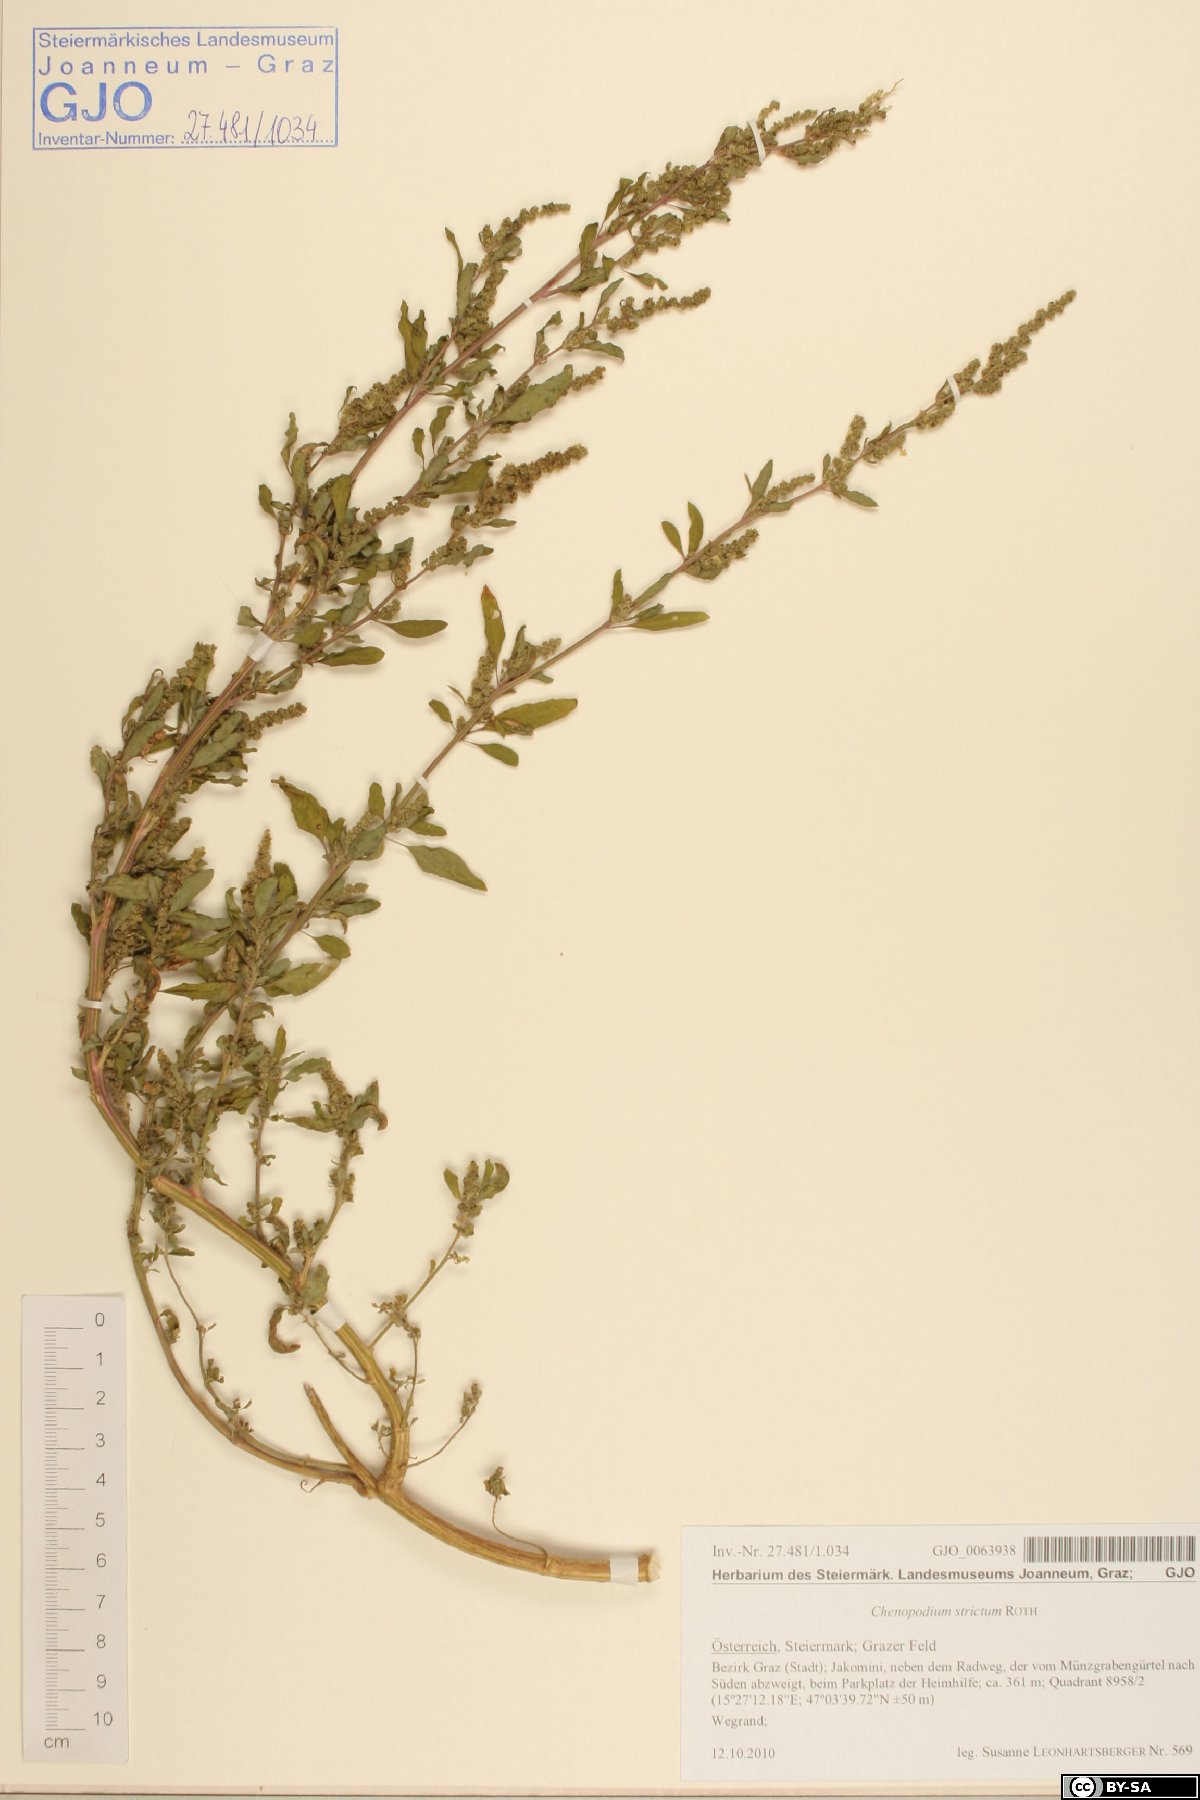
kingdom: Plantae
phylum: Tracheophyta
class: Magnoliopsida
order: Caryophyllales
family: Amaranthaceae
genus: Chenopodium
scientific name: Chenopodium album
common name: Fat-hen
